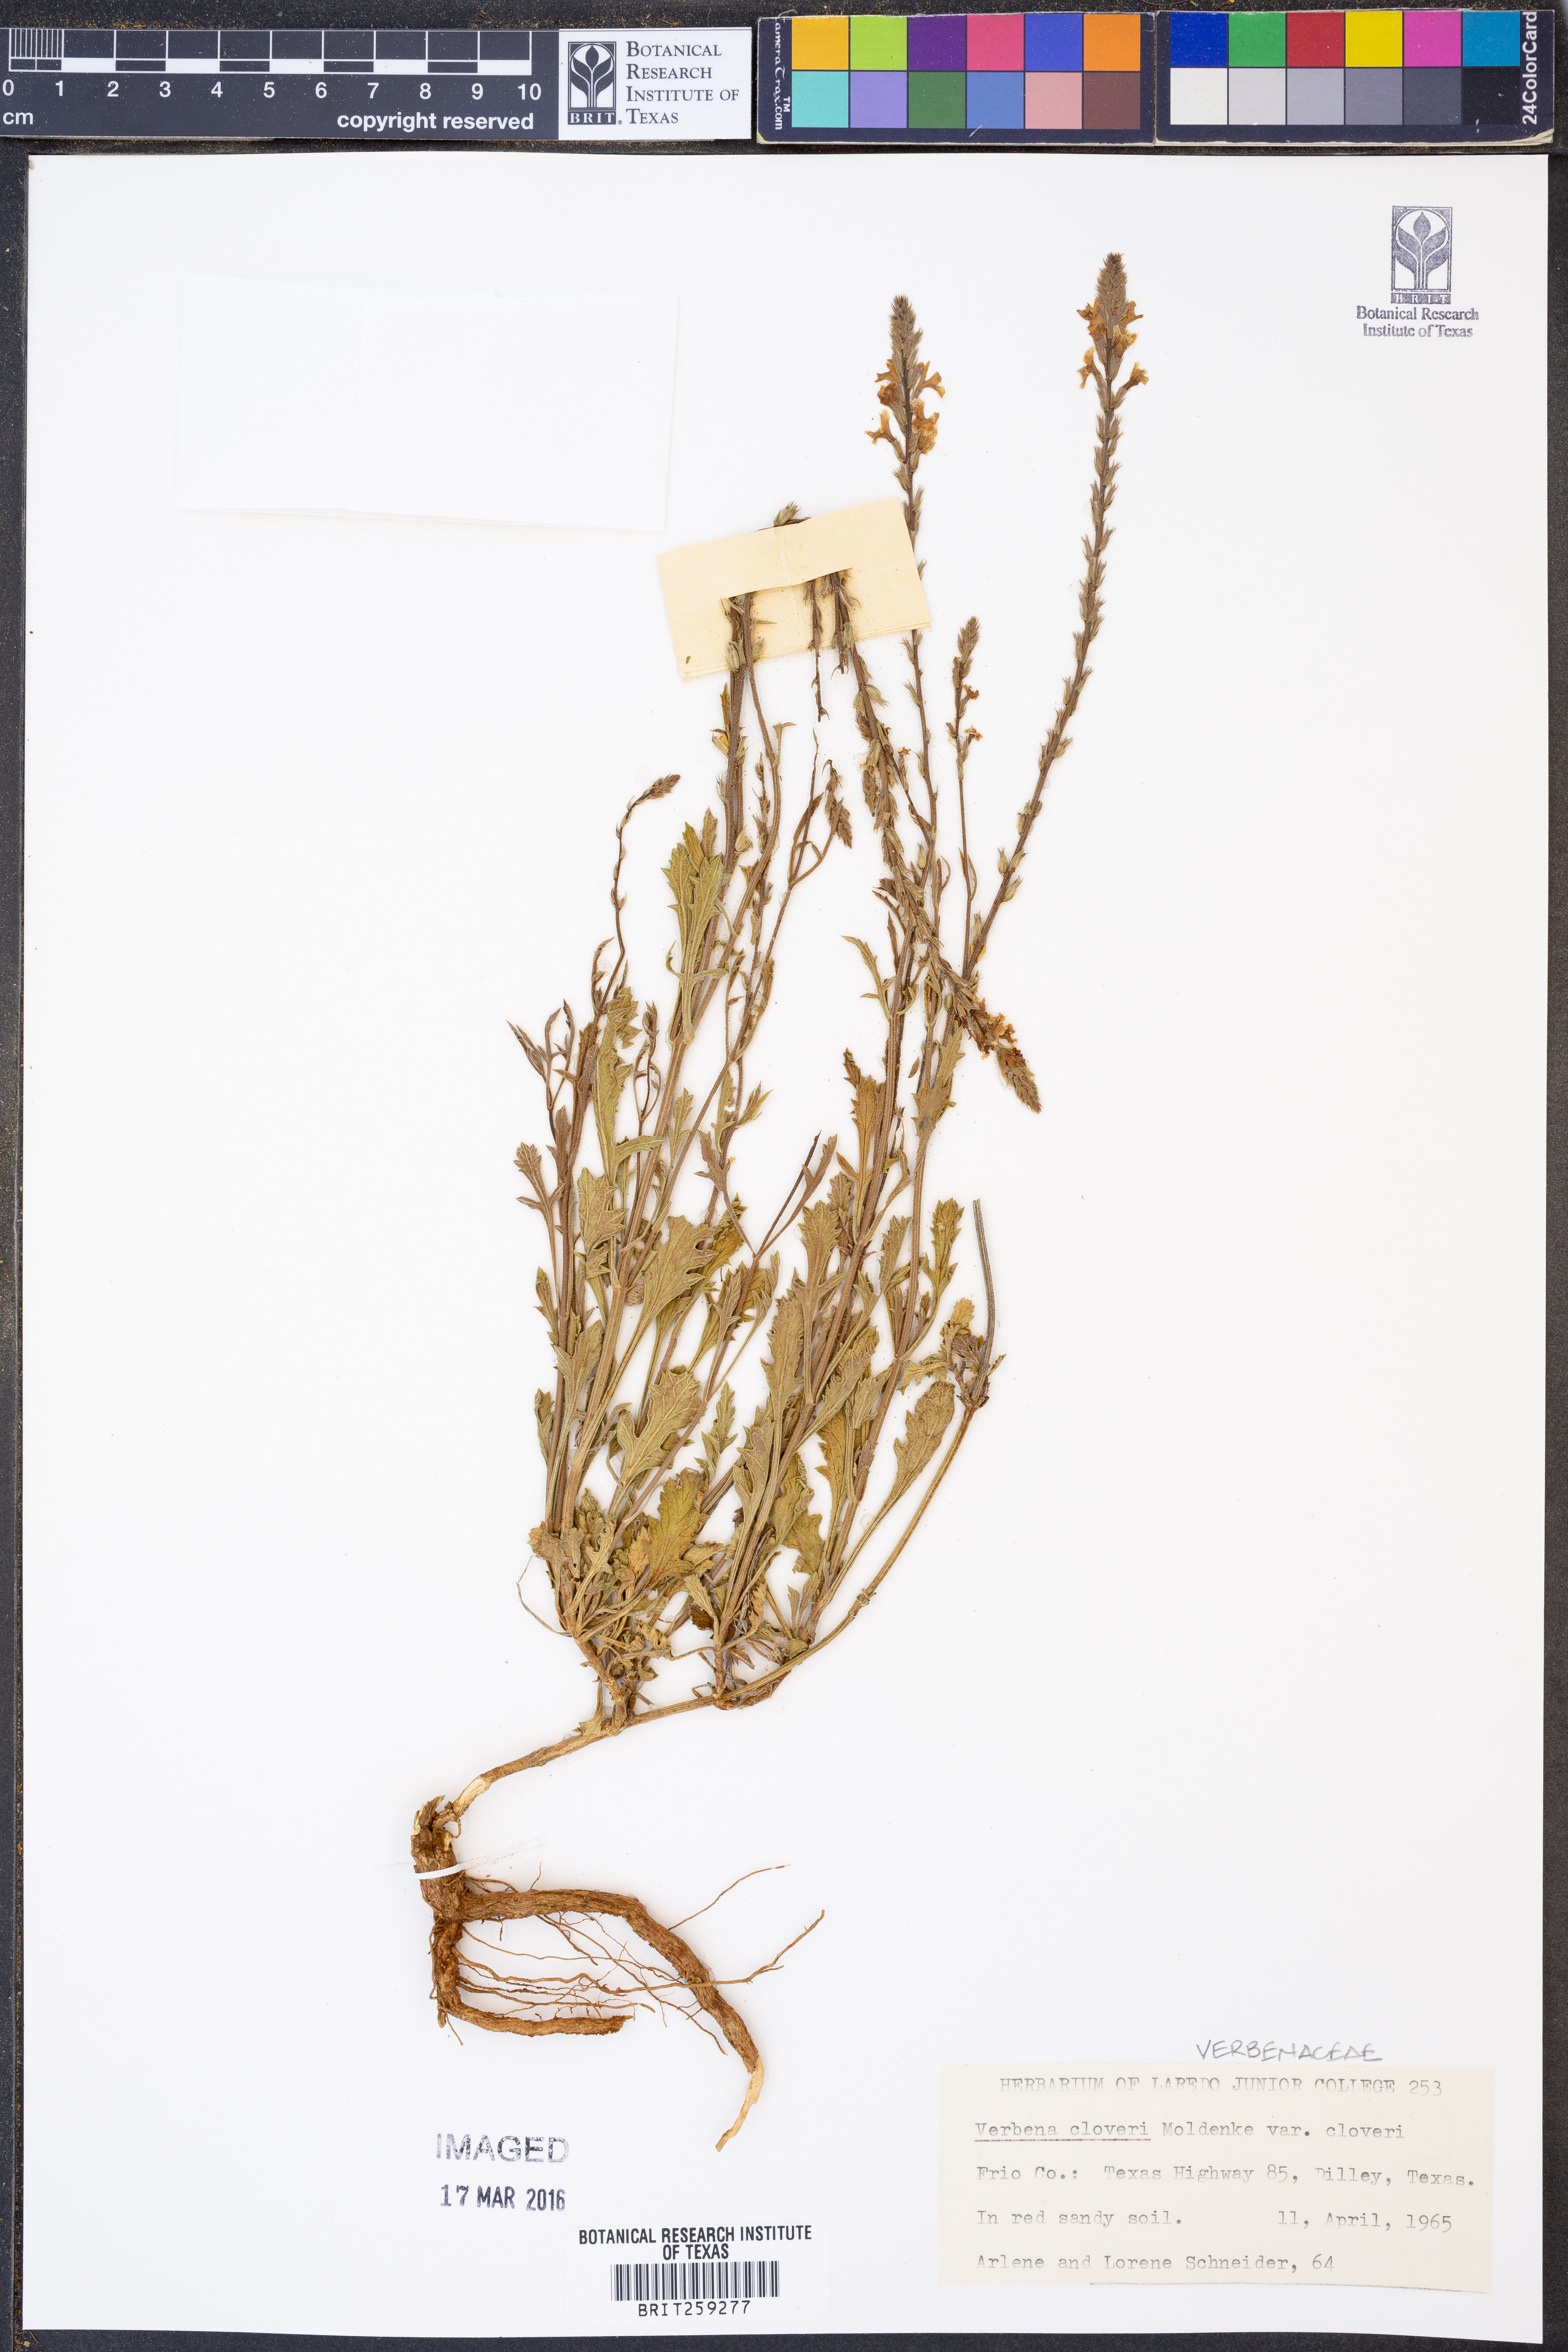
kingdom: Plantae
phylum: Tracheophyta
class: Magnoliopsida
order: Lamiales
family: Verbenaceae
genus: Verbena
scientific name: Verbena cloverae
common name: Clover's vervain
